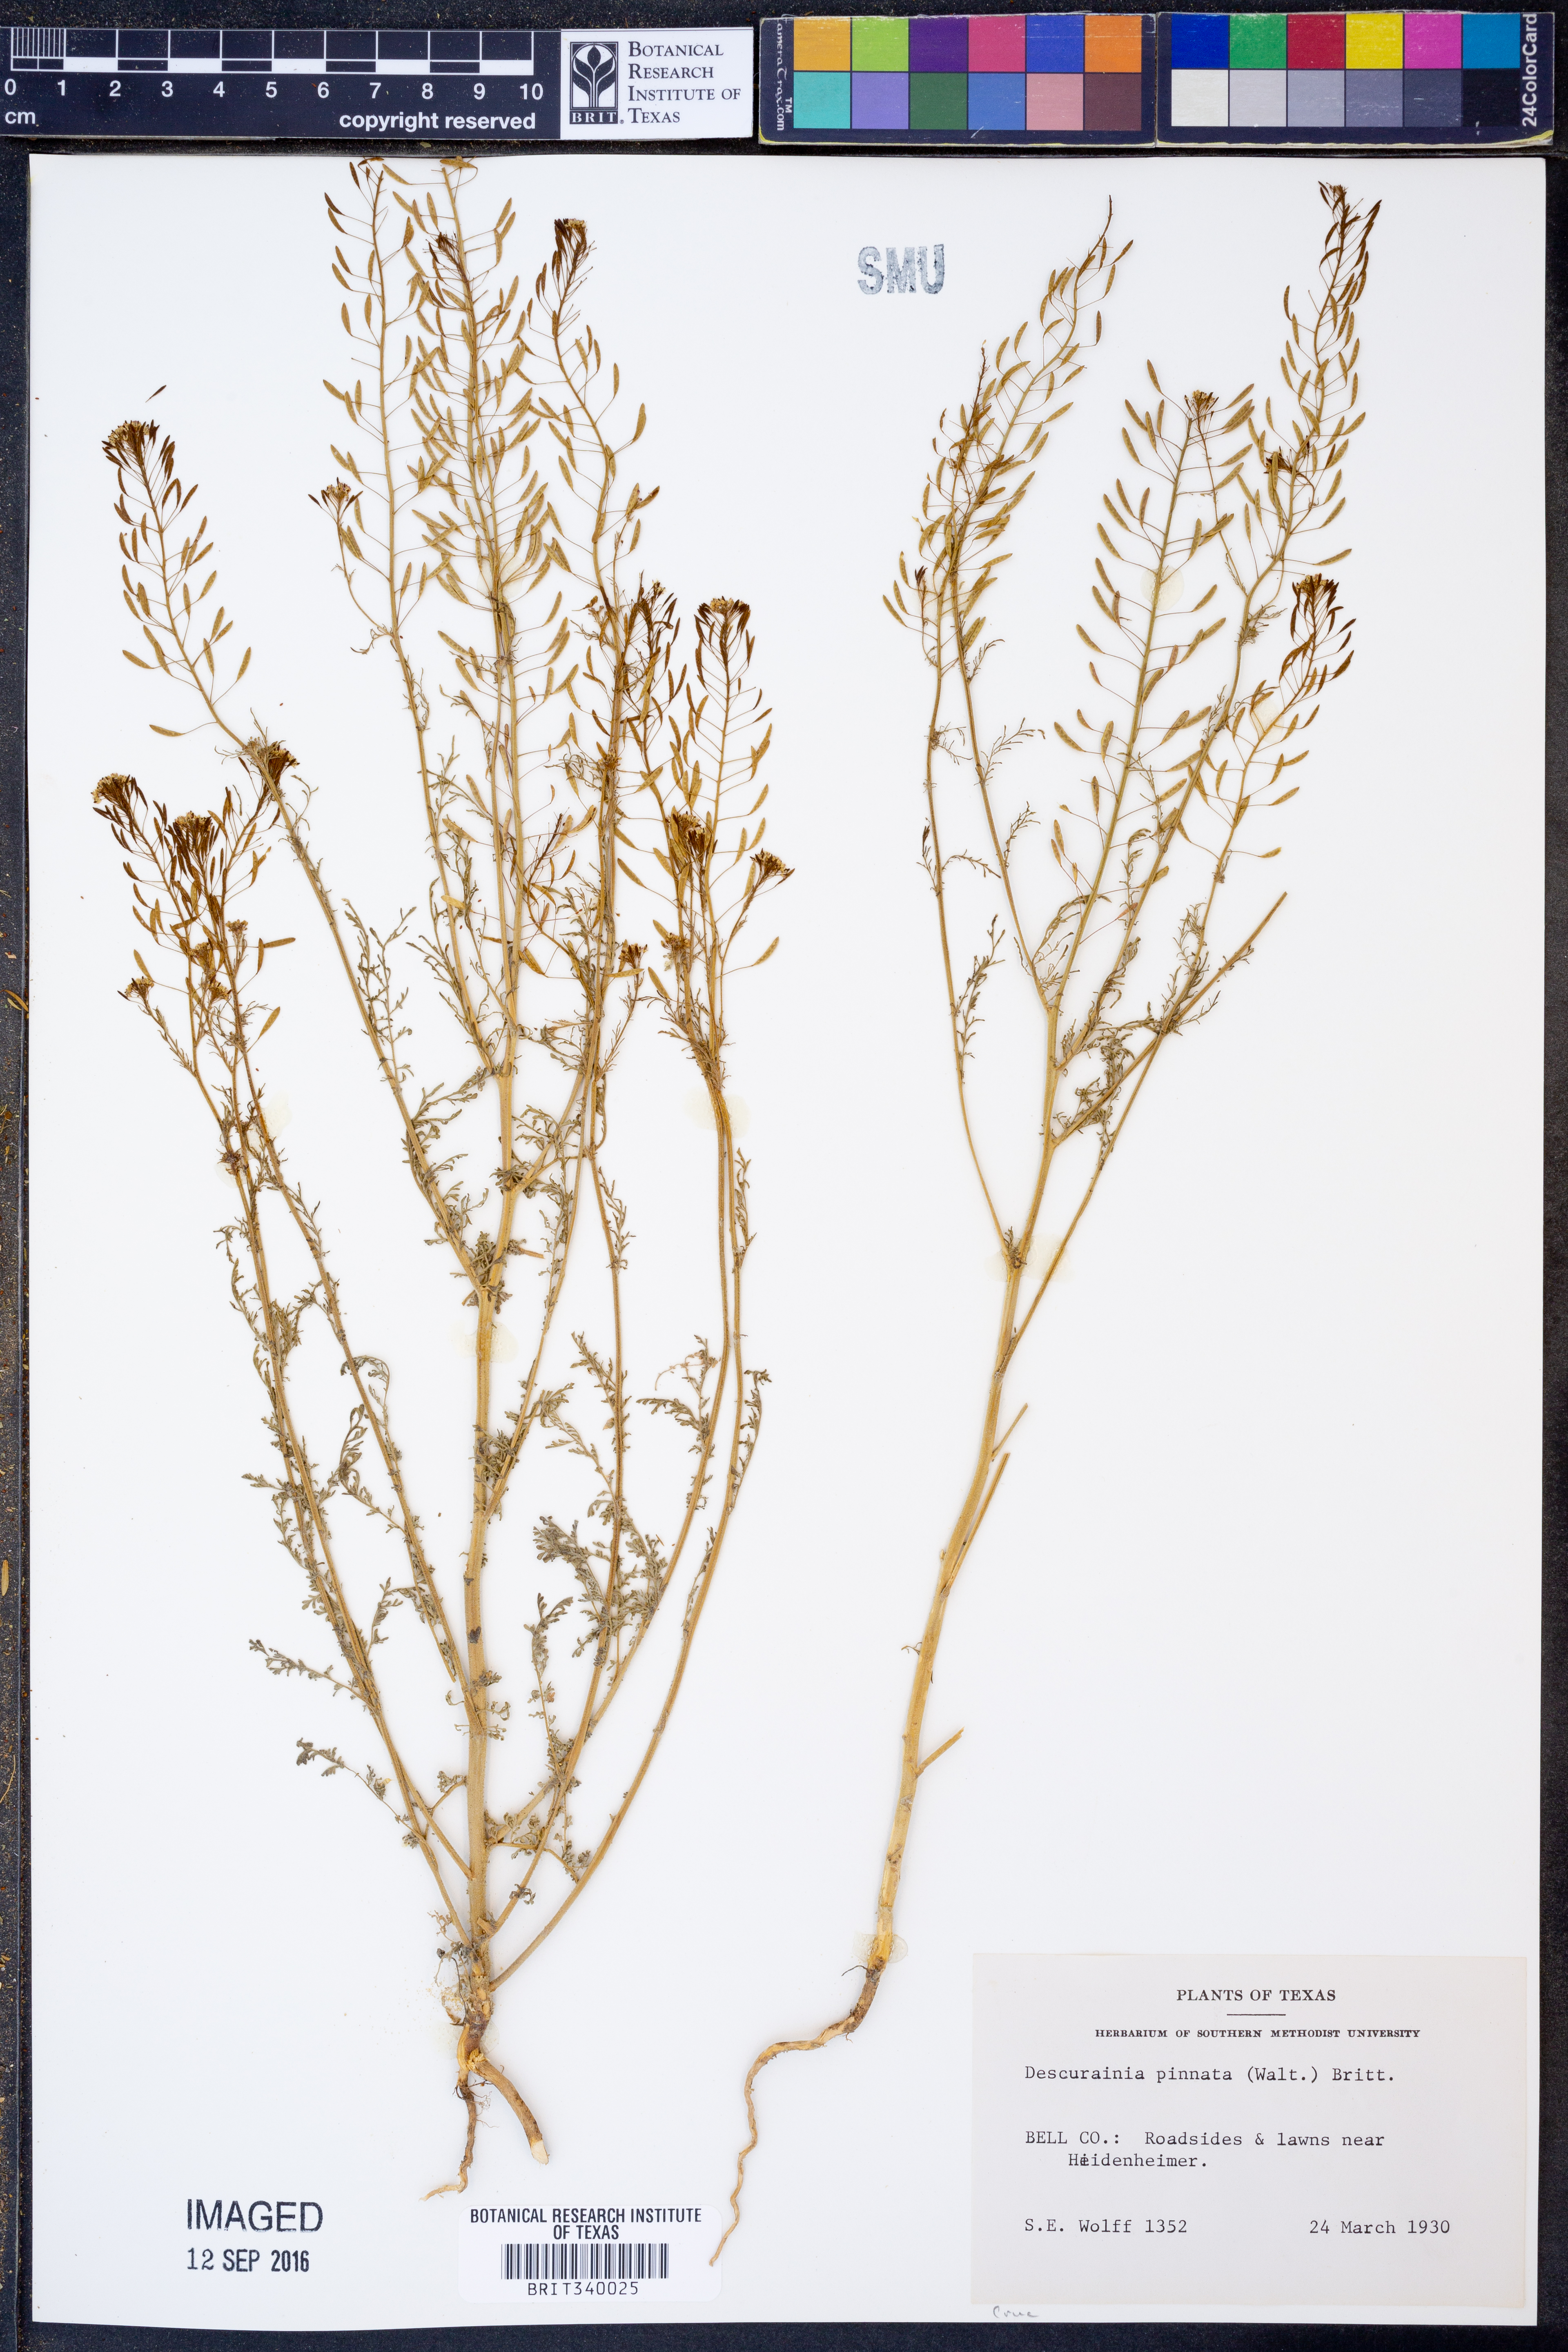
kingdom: Plantae
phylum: Tracheophyta
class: Magnoliopsida
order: Brassicales
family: Brassicaceae
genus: Descurainia
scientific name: Descurainia pinnata
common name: Western tansy mustard
